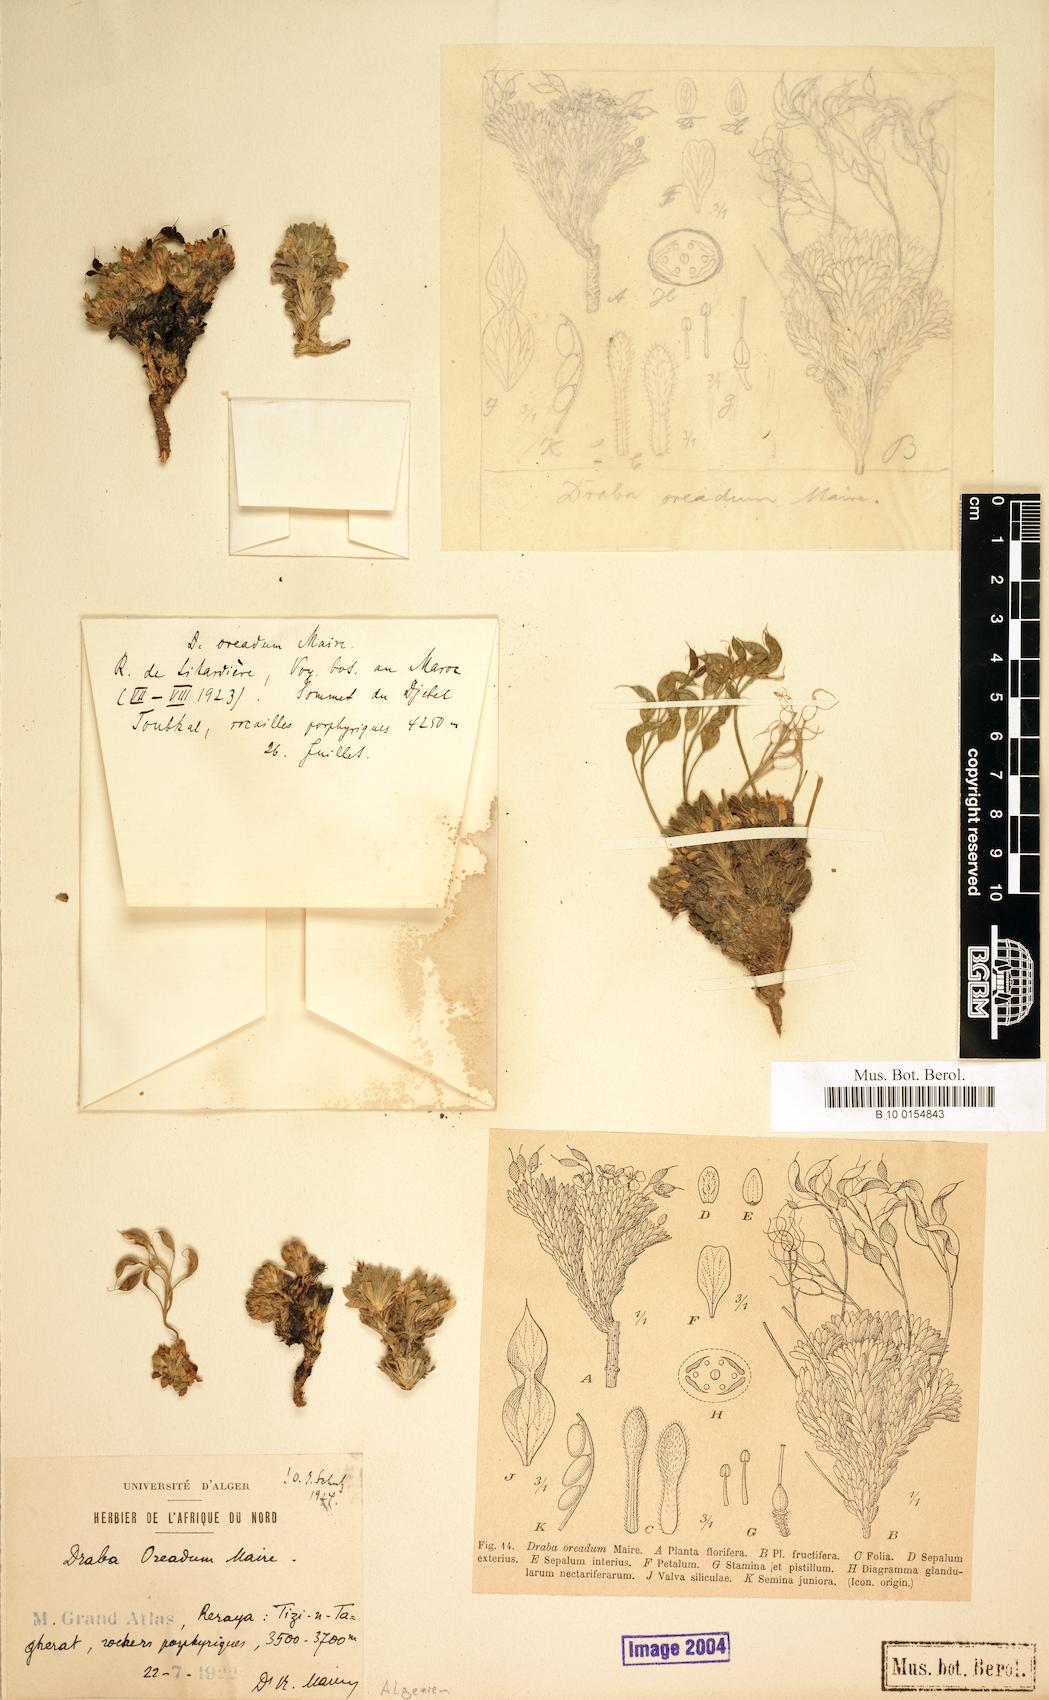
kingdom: Plantae
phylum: Tracheophyta
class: Magnoliopsida
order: Brassicales
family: Brassicaceae
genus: Draba
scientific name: Draba oreadum
